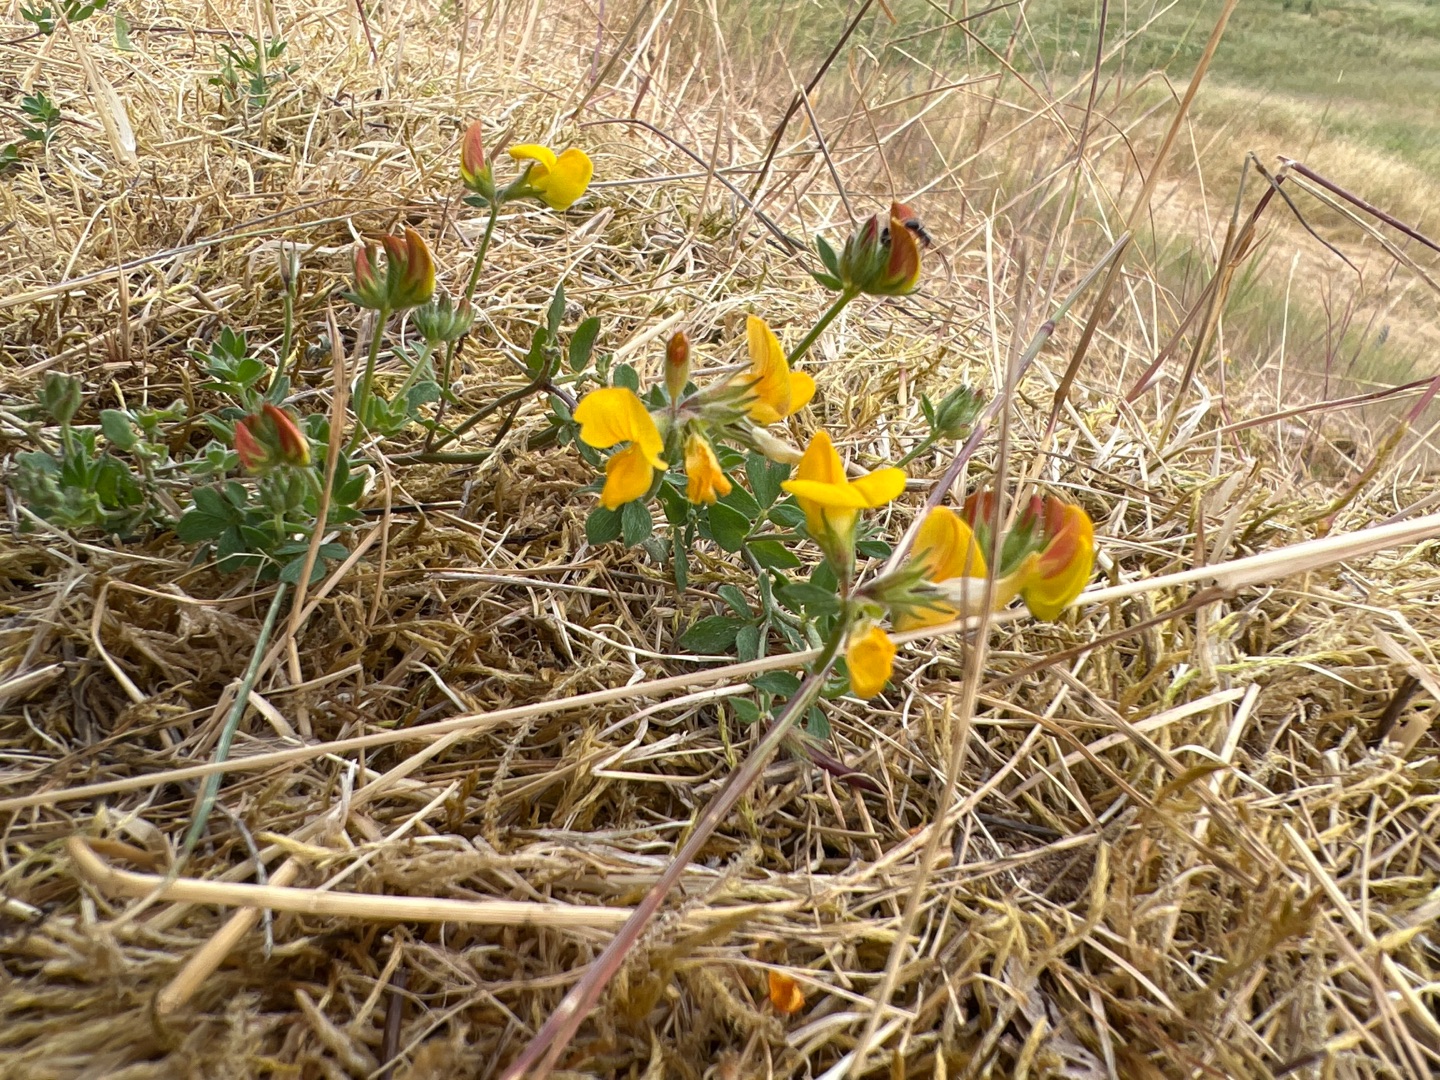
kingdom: Plantae
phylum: Tracheophyta
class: Magnoliopsida
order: Fabales
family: Fabaceae
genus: Lotus
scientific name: Lotus corniculatus
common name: Almindelig kællingetand
